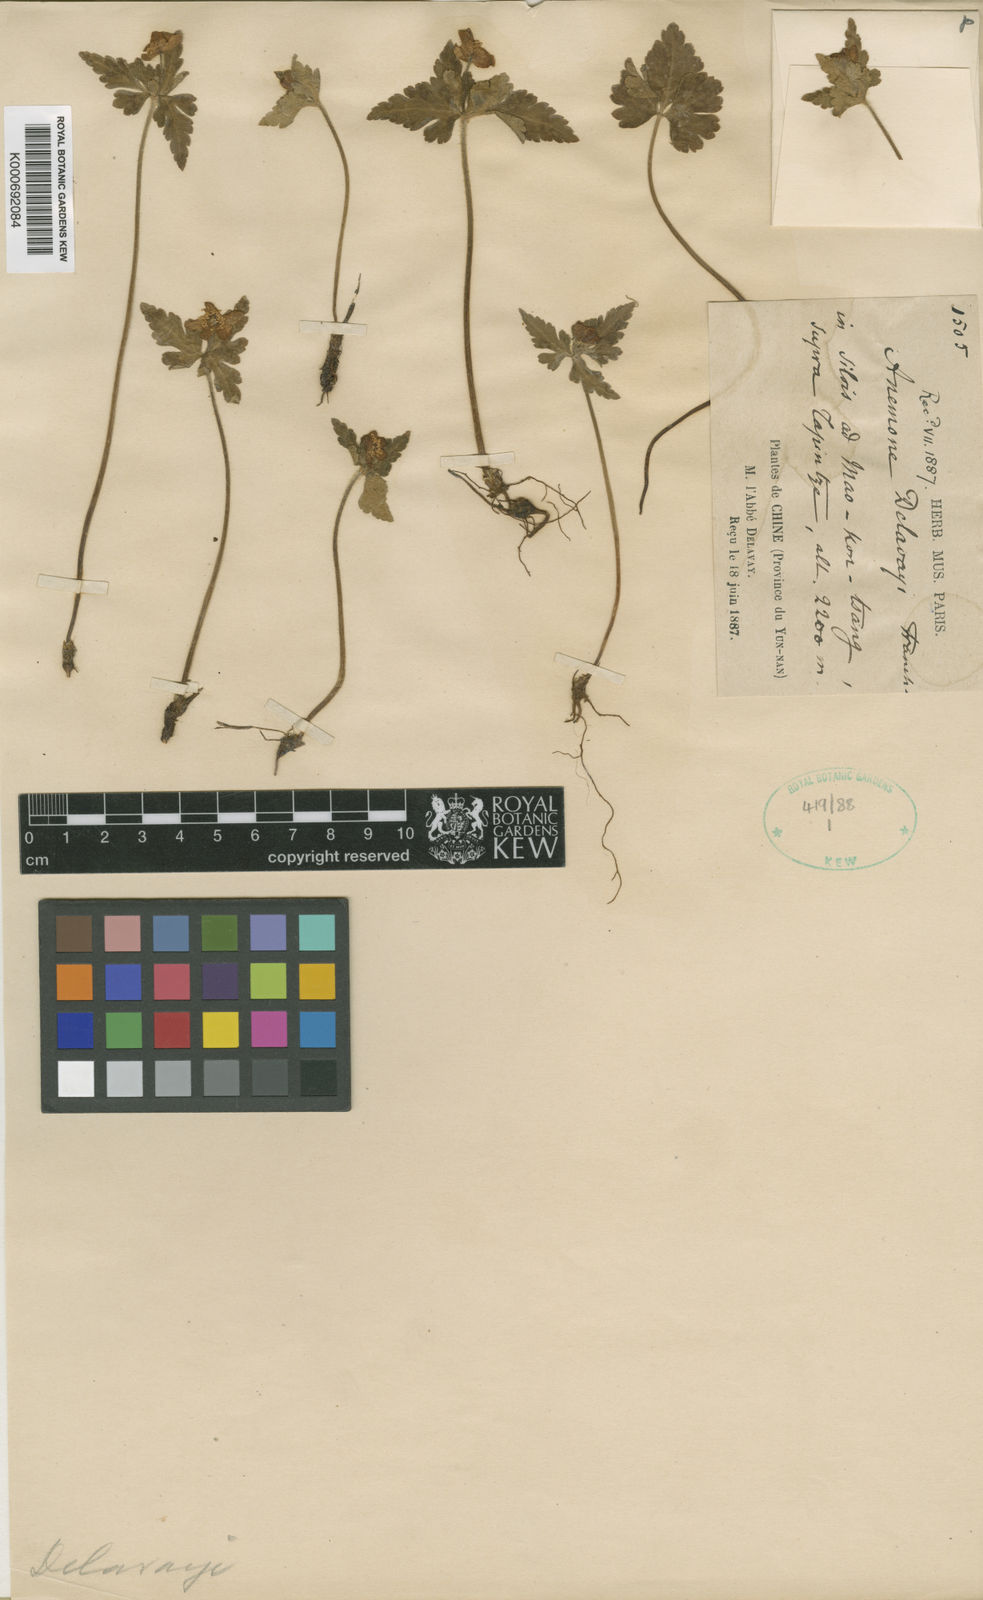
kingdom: Plantae
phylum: Tracheophyta
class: Magnoliopsida
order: Ranunculales
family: Ranunculaceae
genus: Anemone
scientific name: Anemone delavayi
